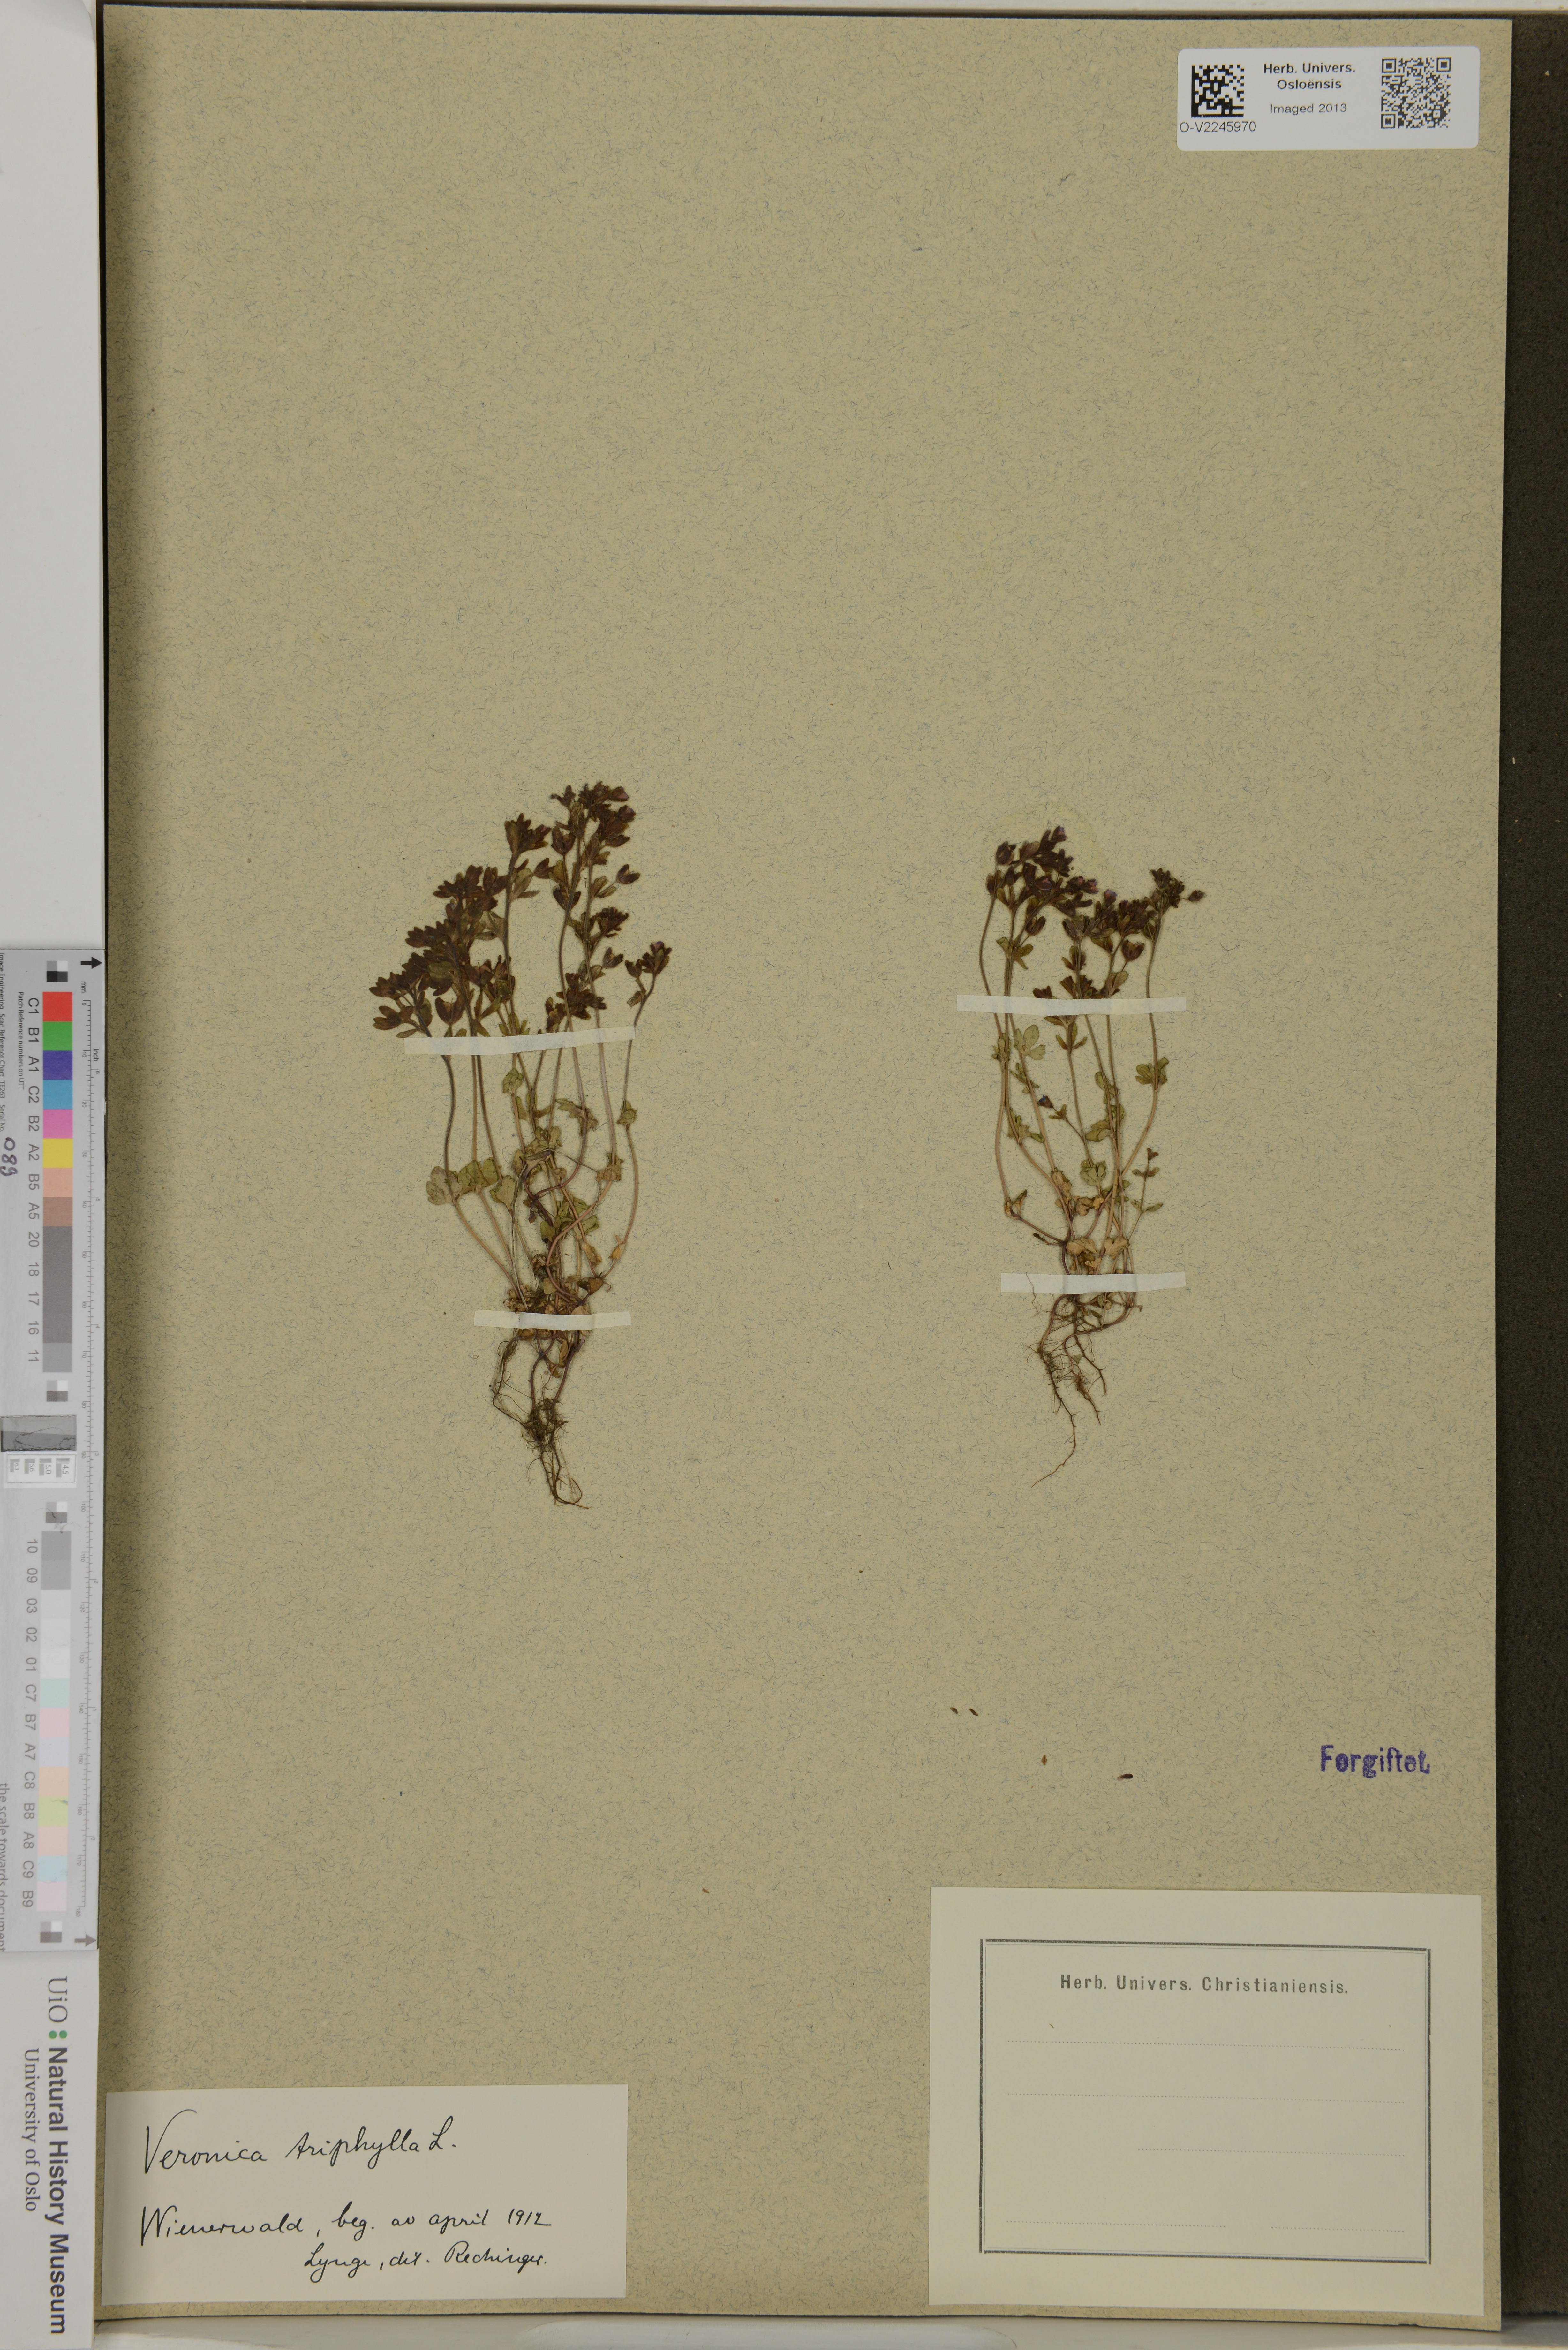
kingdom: Plantae
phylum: Tracheophyta
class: Magnoliopsida
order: Lamiales
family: Plantaginaceae
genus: Veronica
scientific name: Veronica triphyllos
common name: Fingered speedwell
